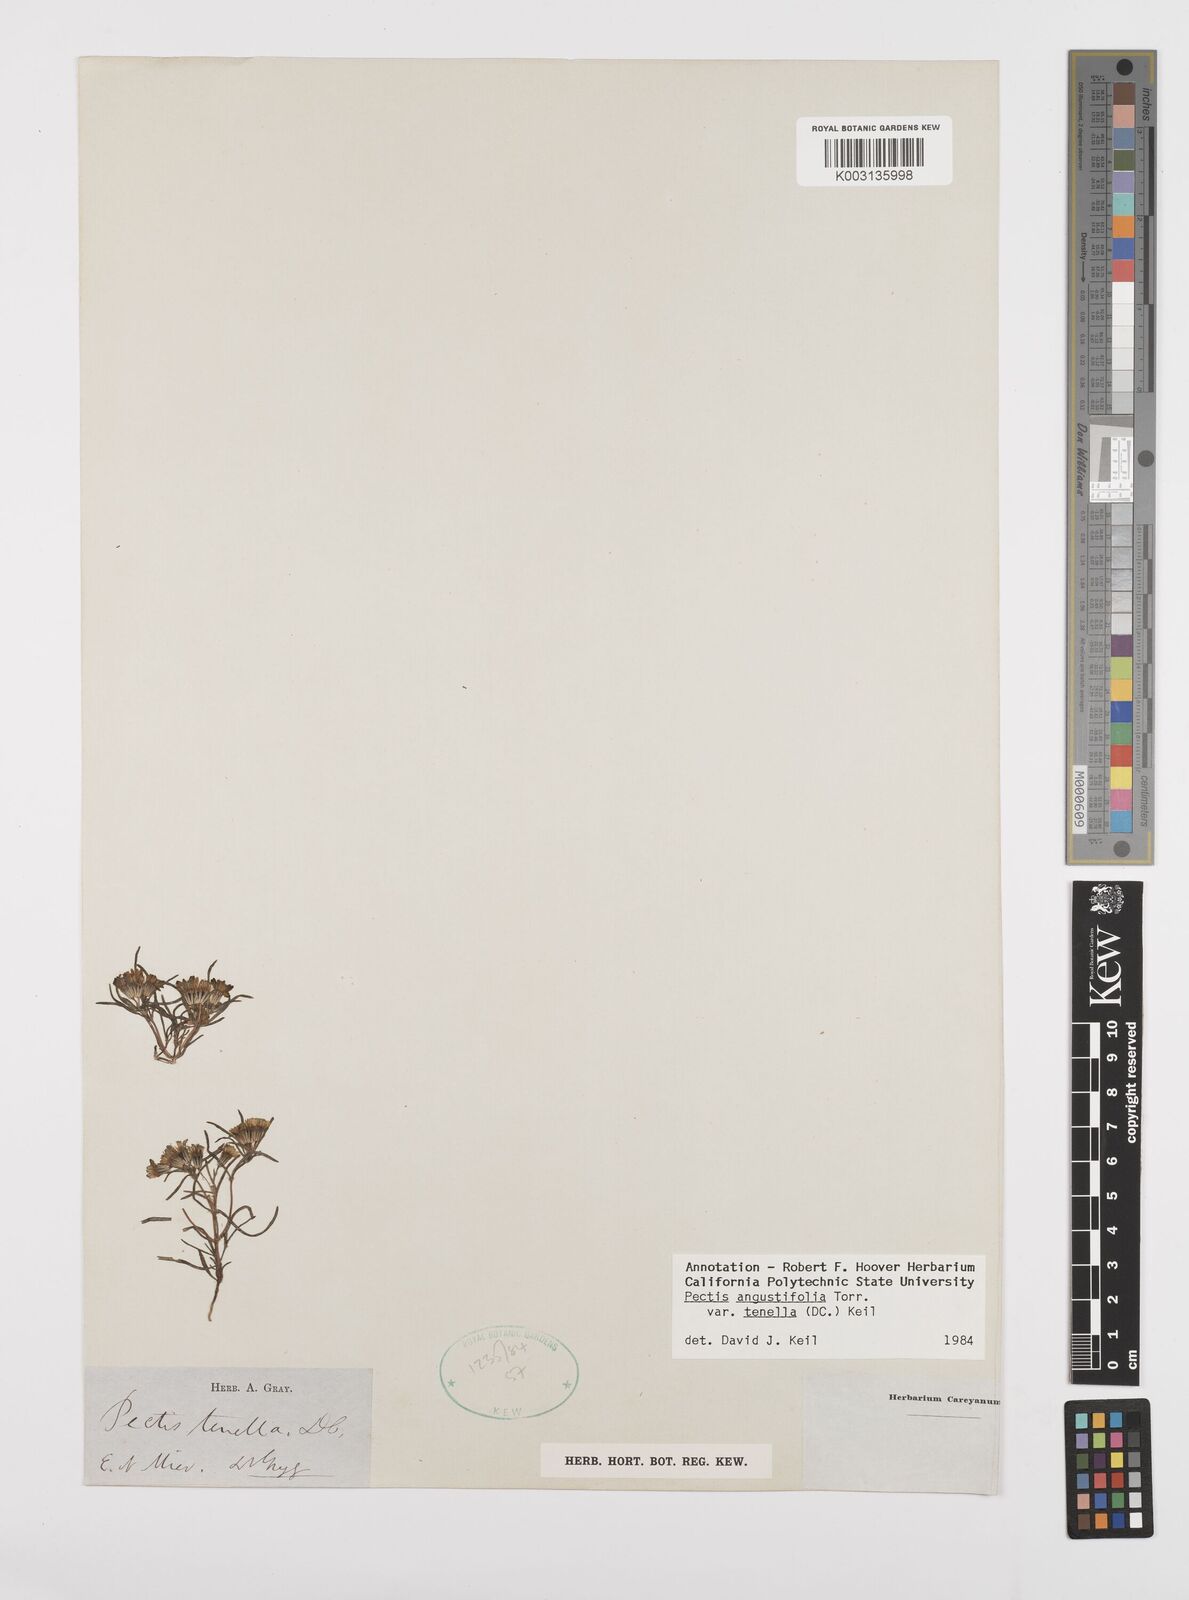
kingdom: Plantae
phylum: Tracheophyta
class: Magnoliopsida
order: Asterales
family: Asteraceae
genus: Pectis
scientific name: Pectis angustifolia
